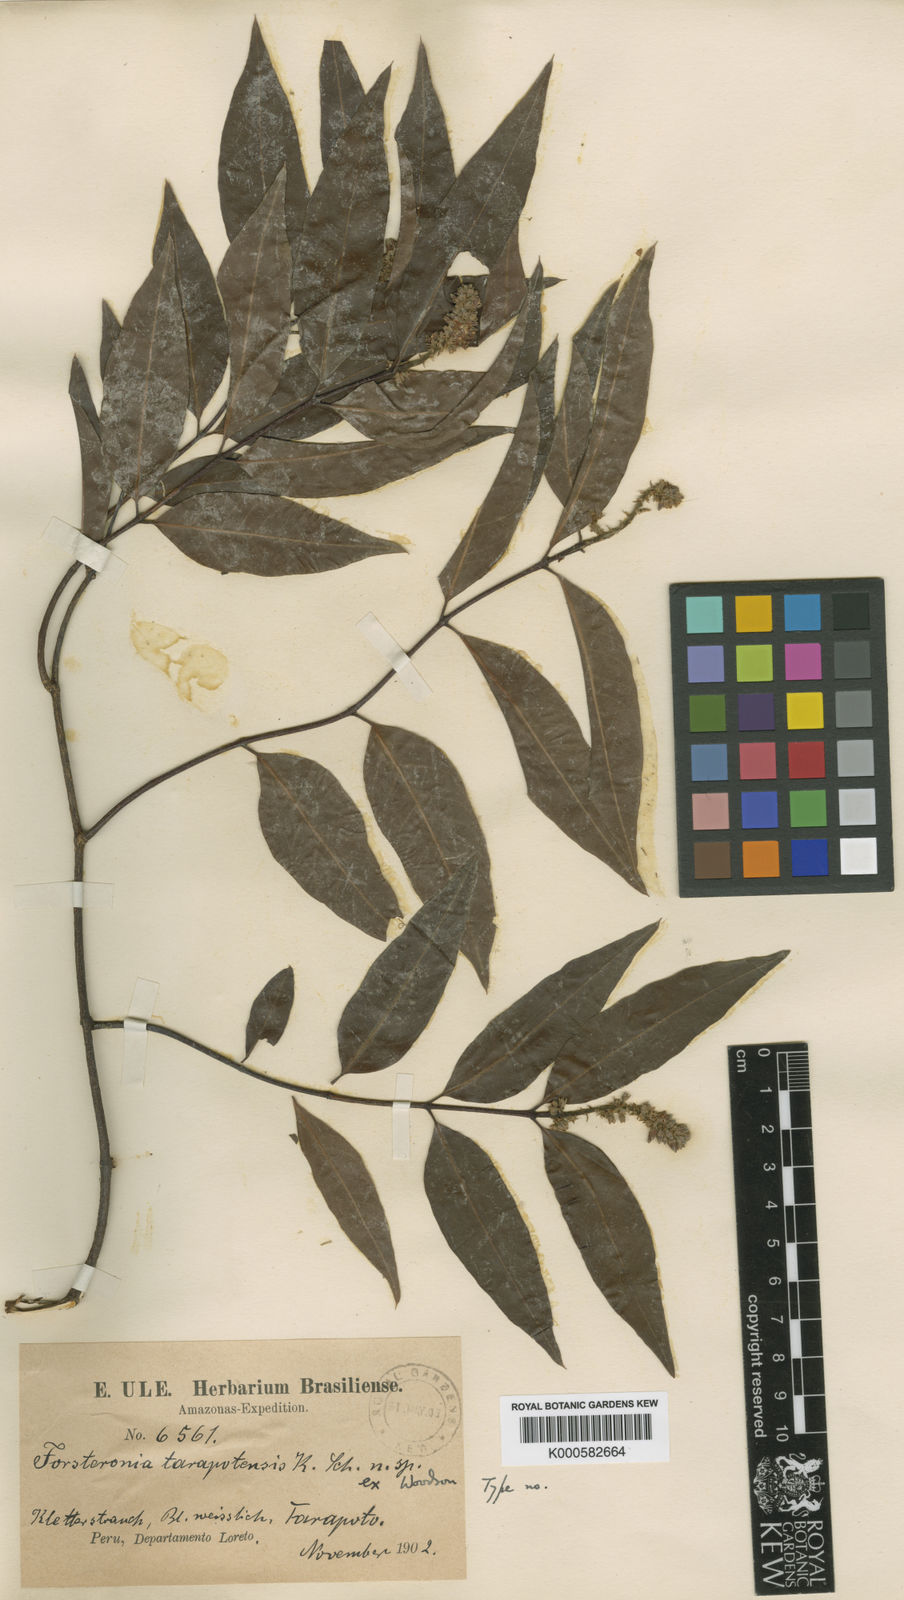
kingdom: Plantae
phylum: Tracheophyta
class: Magnoliopsida
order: Gentianales
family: Apocynaceae
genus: Forsteronia
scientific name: Forsteronia tarapotensis
